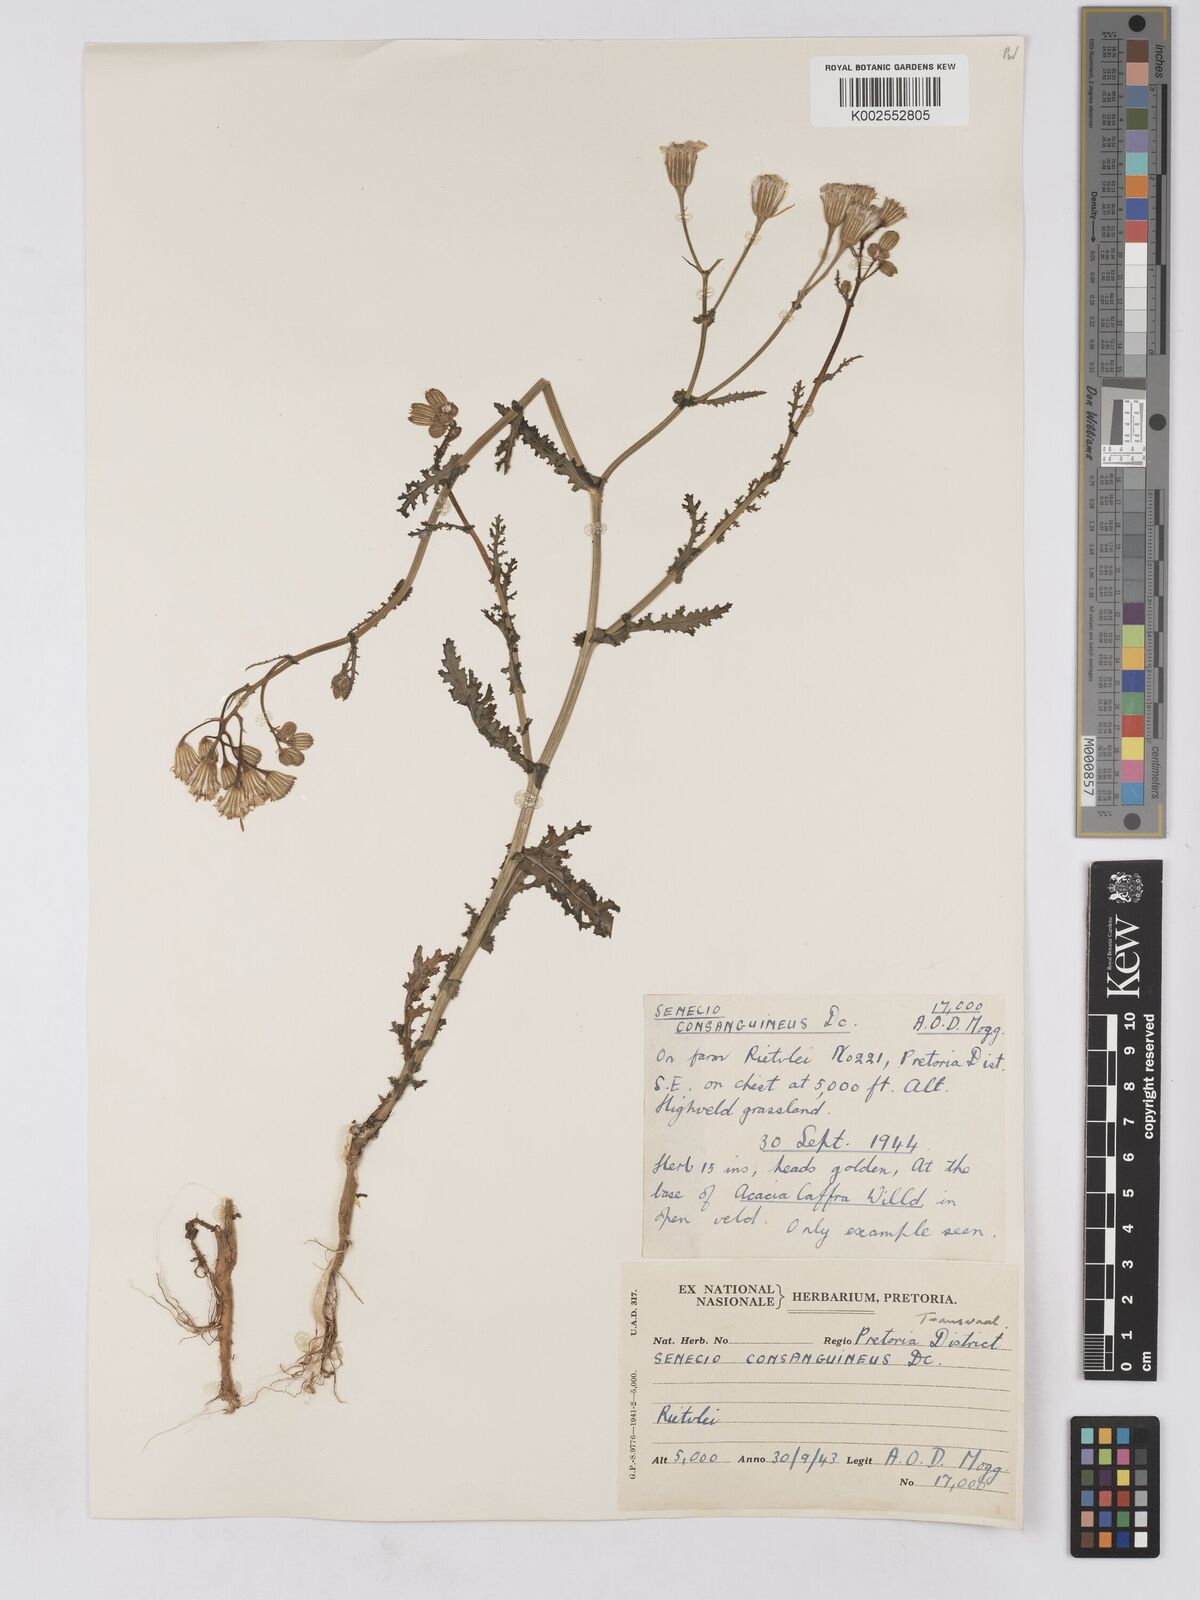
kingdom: Plantae
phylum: Tracheophyta
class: Magnoliopsida
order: Asterales
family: Asteraceae
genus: Senecio
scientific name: Senecio consanguineus
